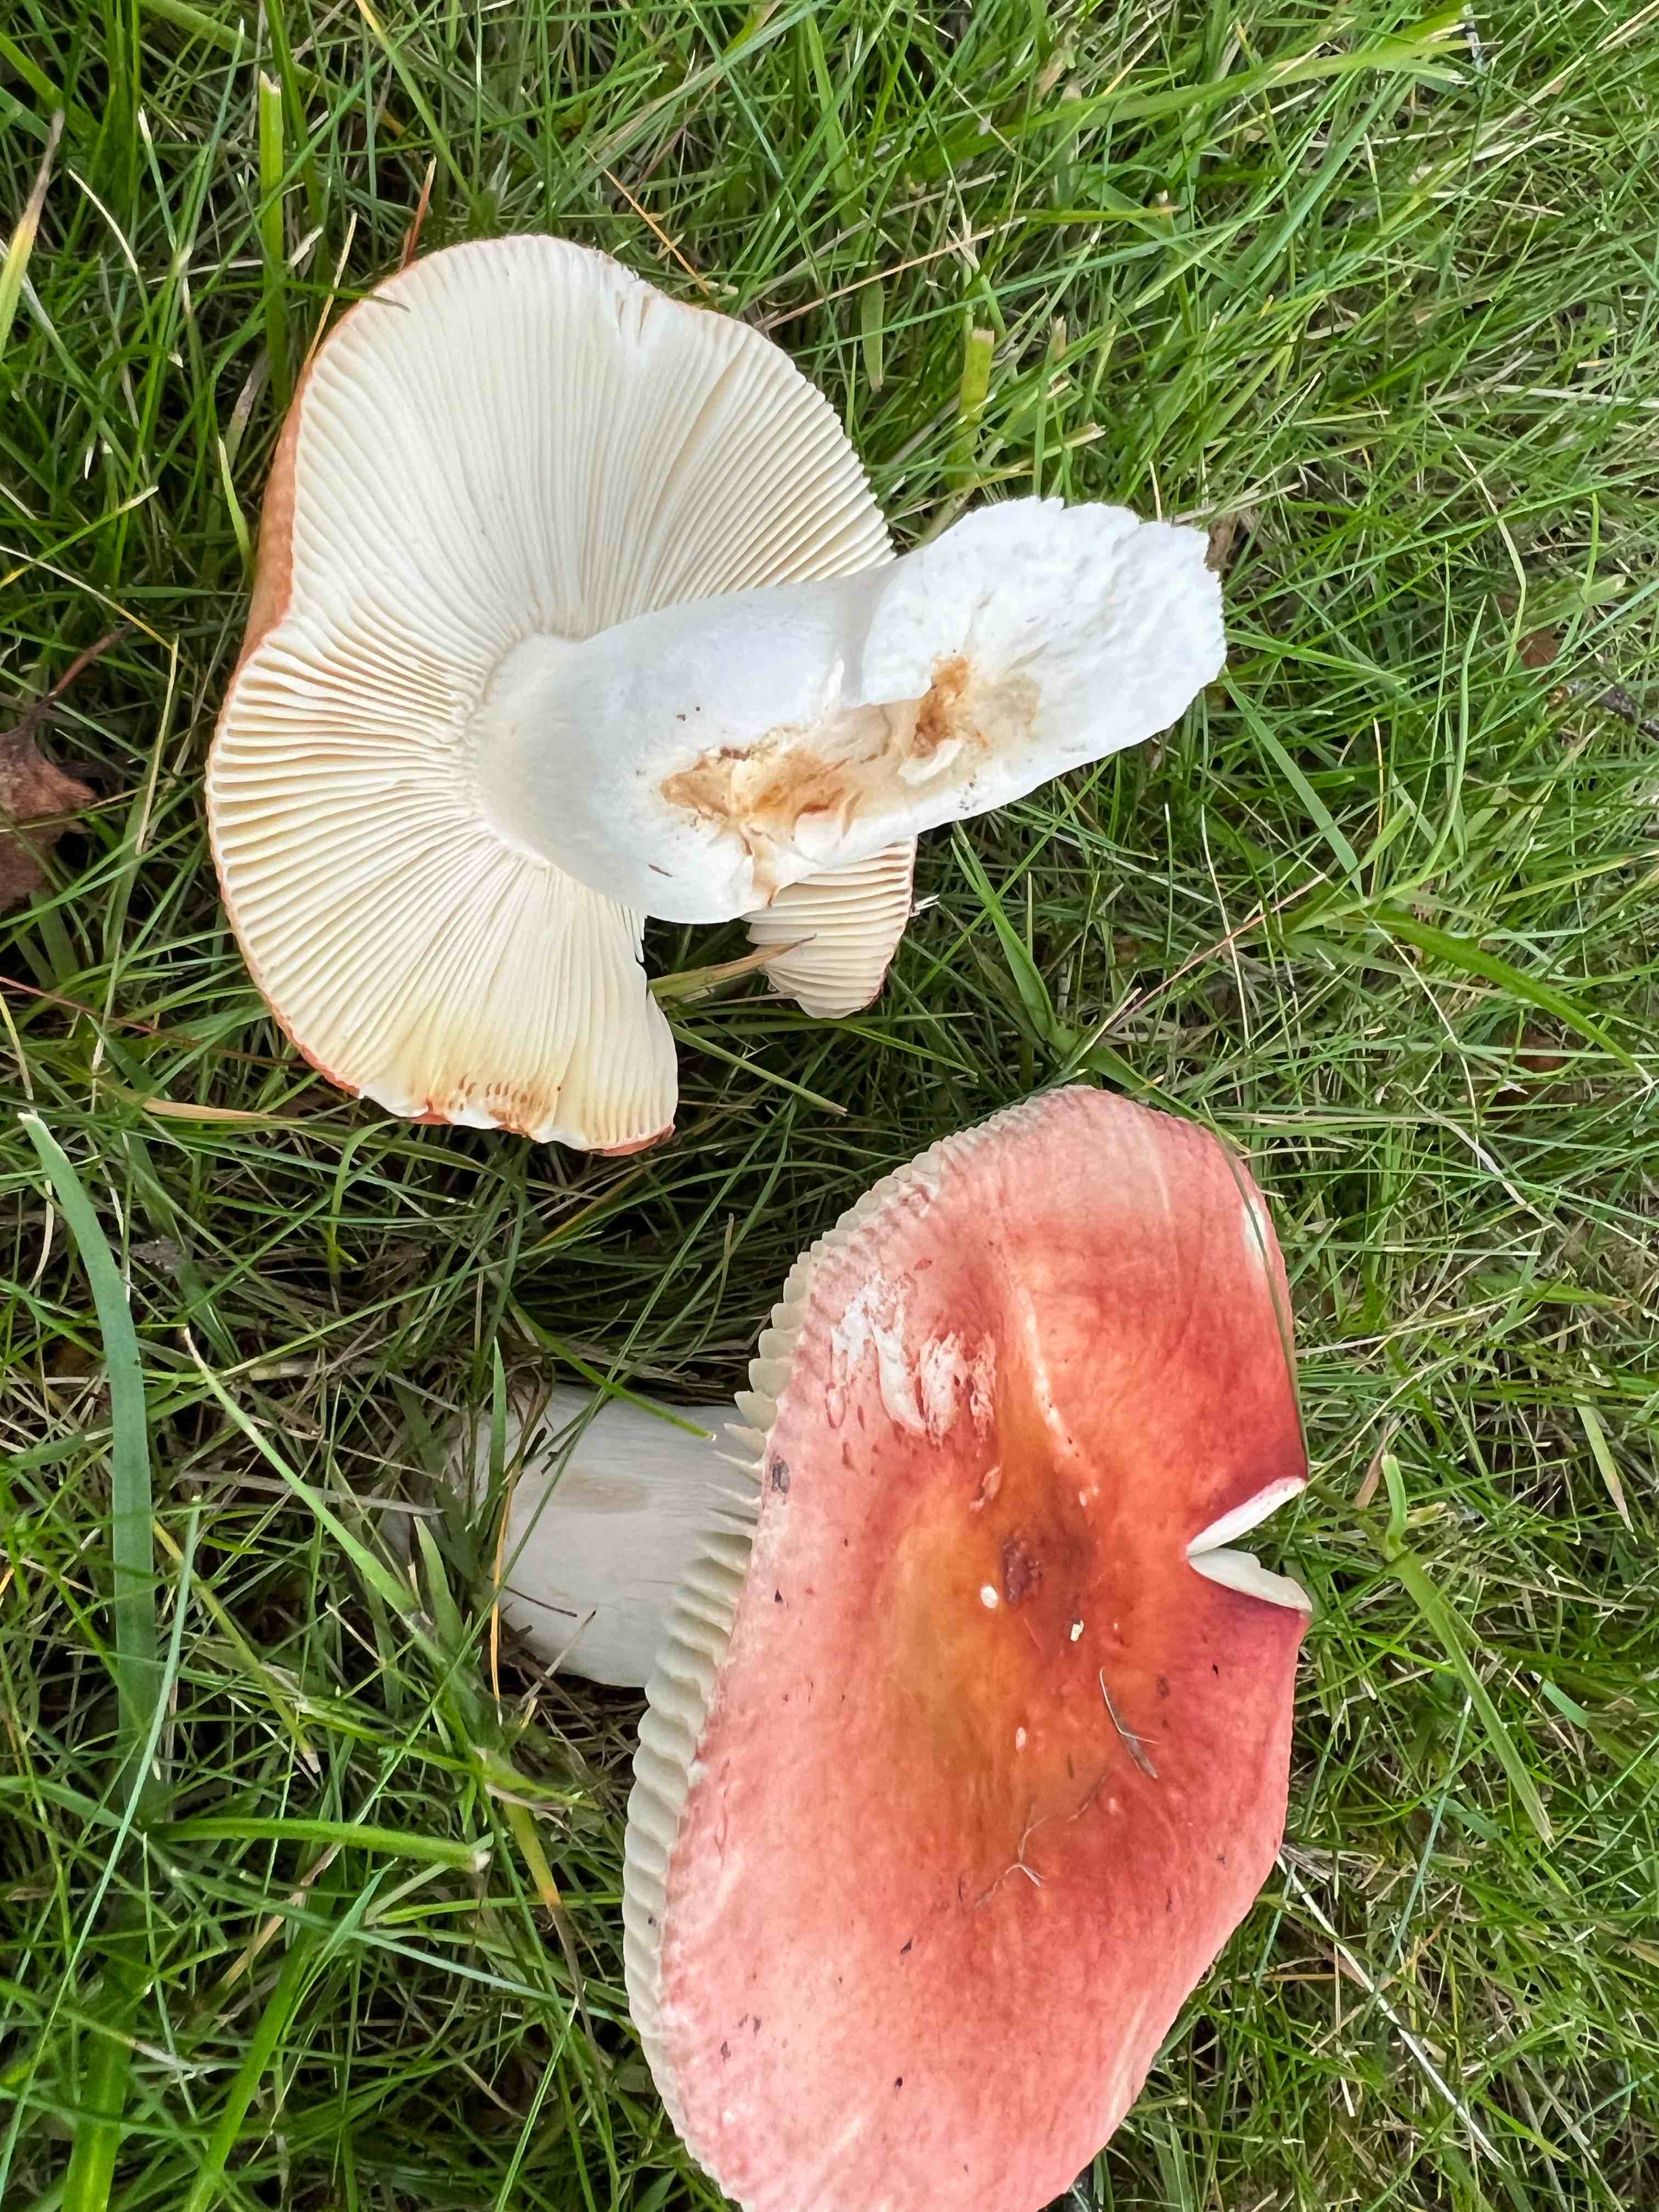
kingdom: Fungi
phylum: Basidiomycota
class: Agaricomycetes
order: Russulales
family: Russulaceae
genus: Russula
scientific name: Russula velenovskyi
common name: orangerød skørhat
